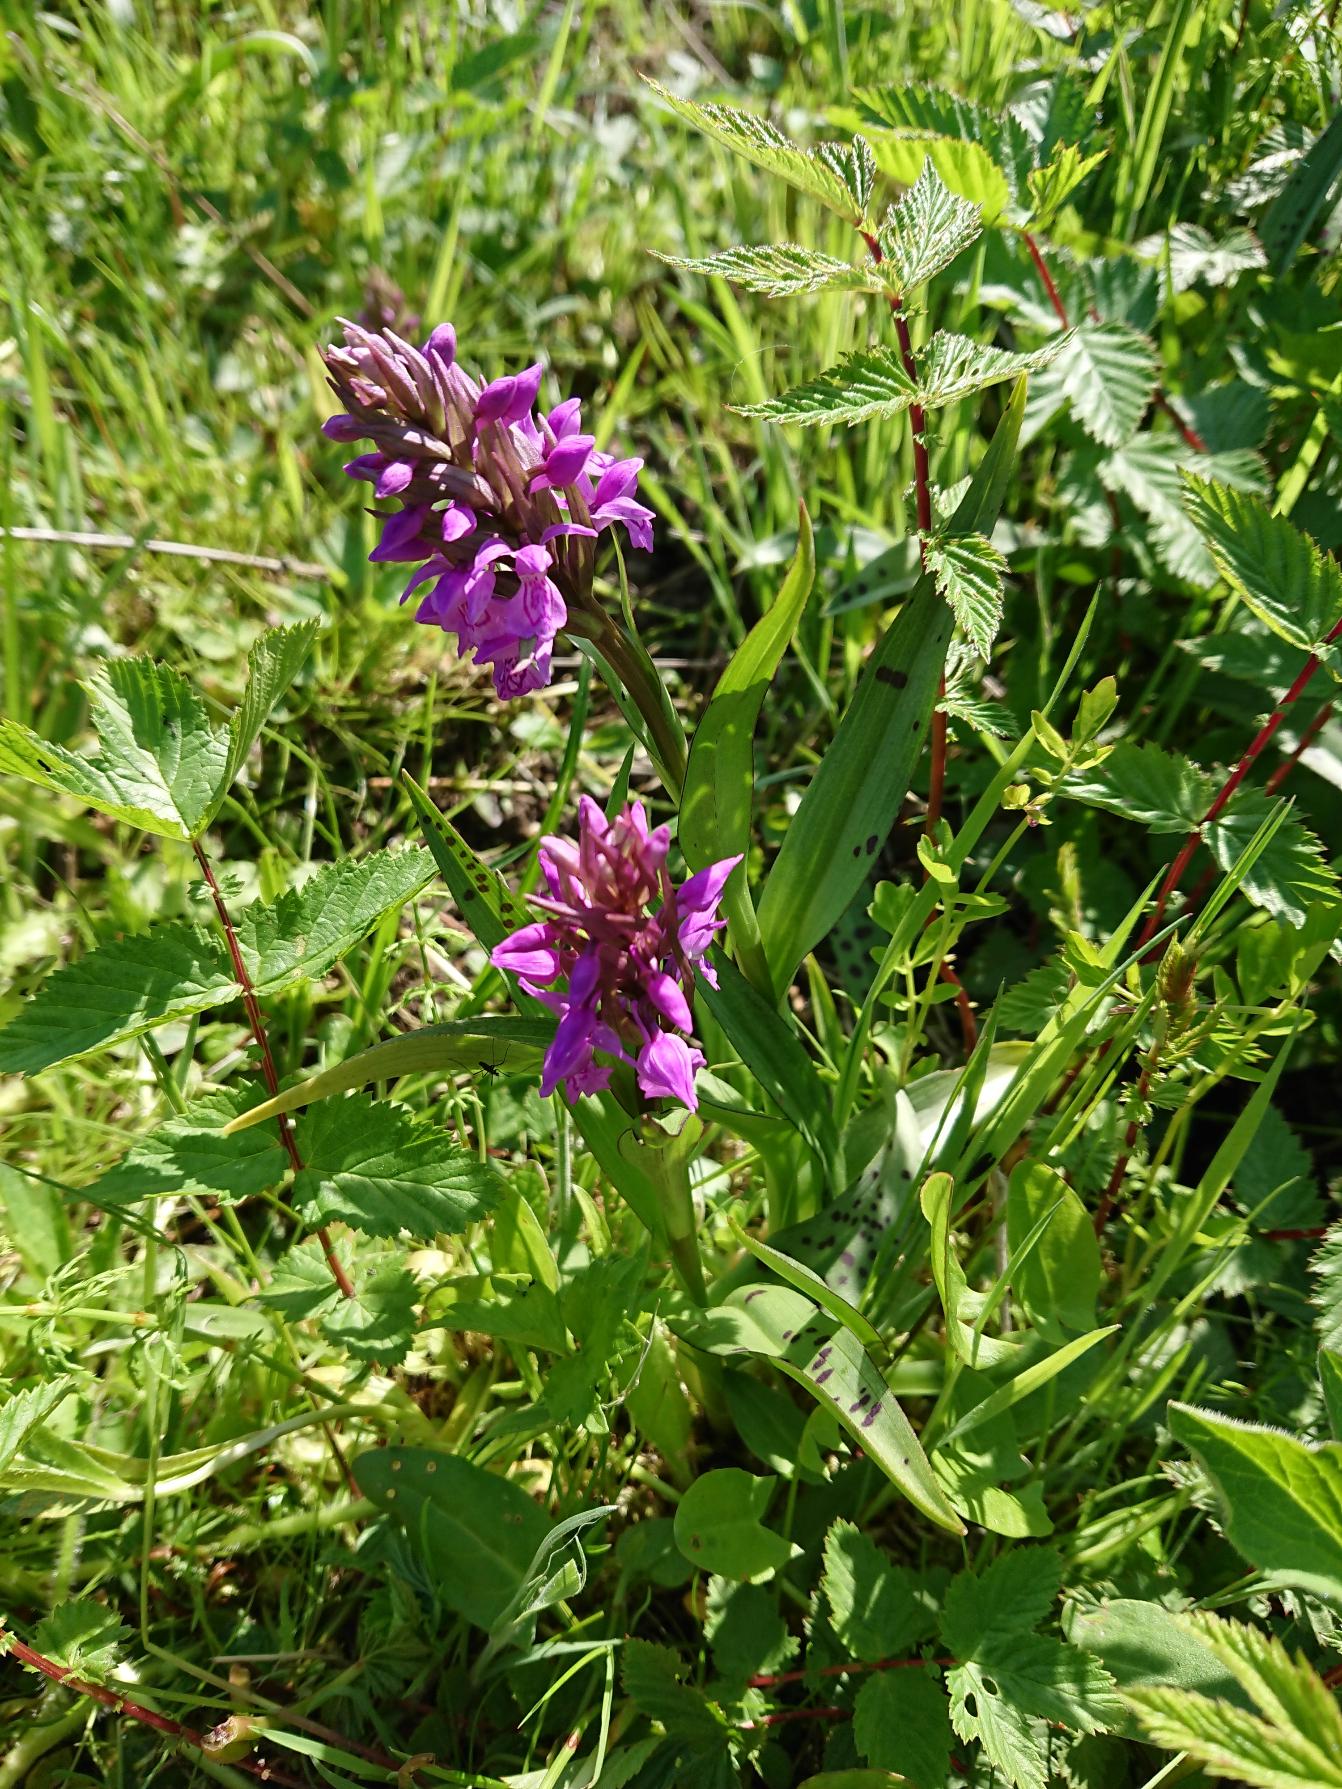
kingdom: Plantae
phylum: Tracheophyta
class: Liliopsida
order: Asparagales
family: Orchidaceae
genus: Dactylorhiza
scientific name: Dactylorhiza majalis
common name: Maj-gøgeurt (underart)
